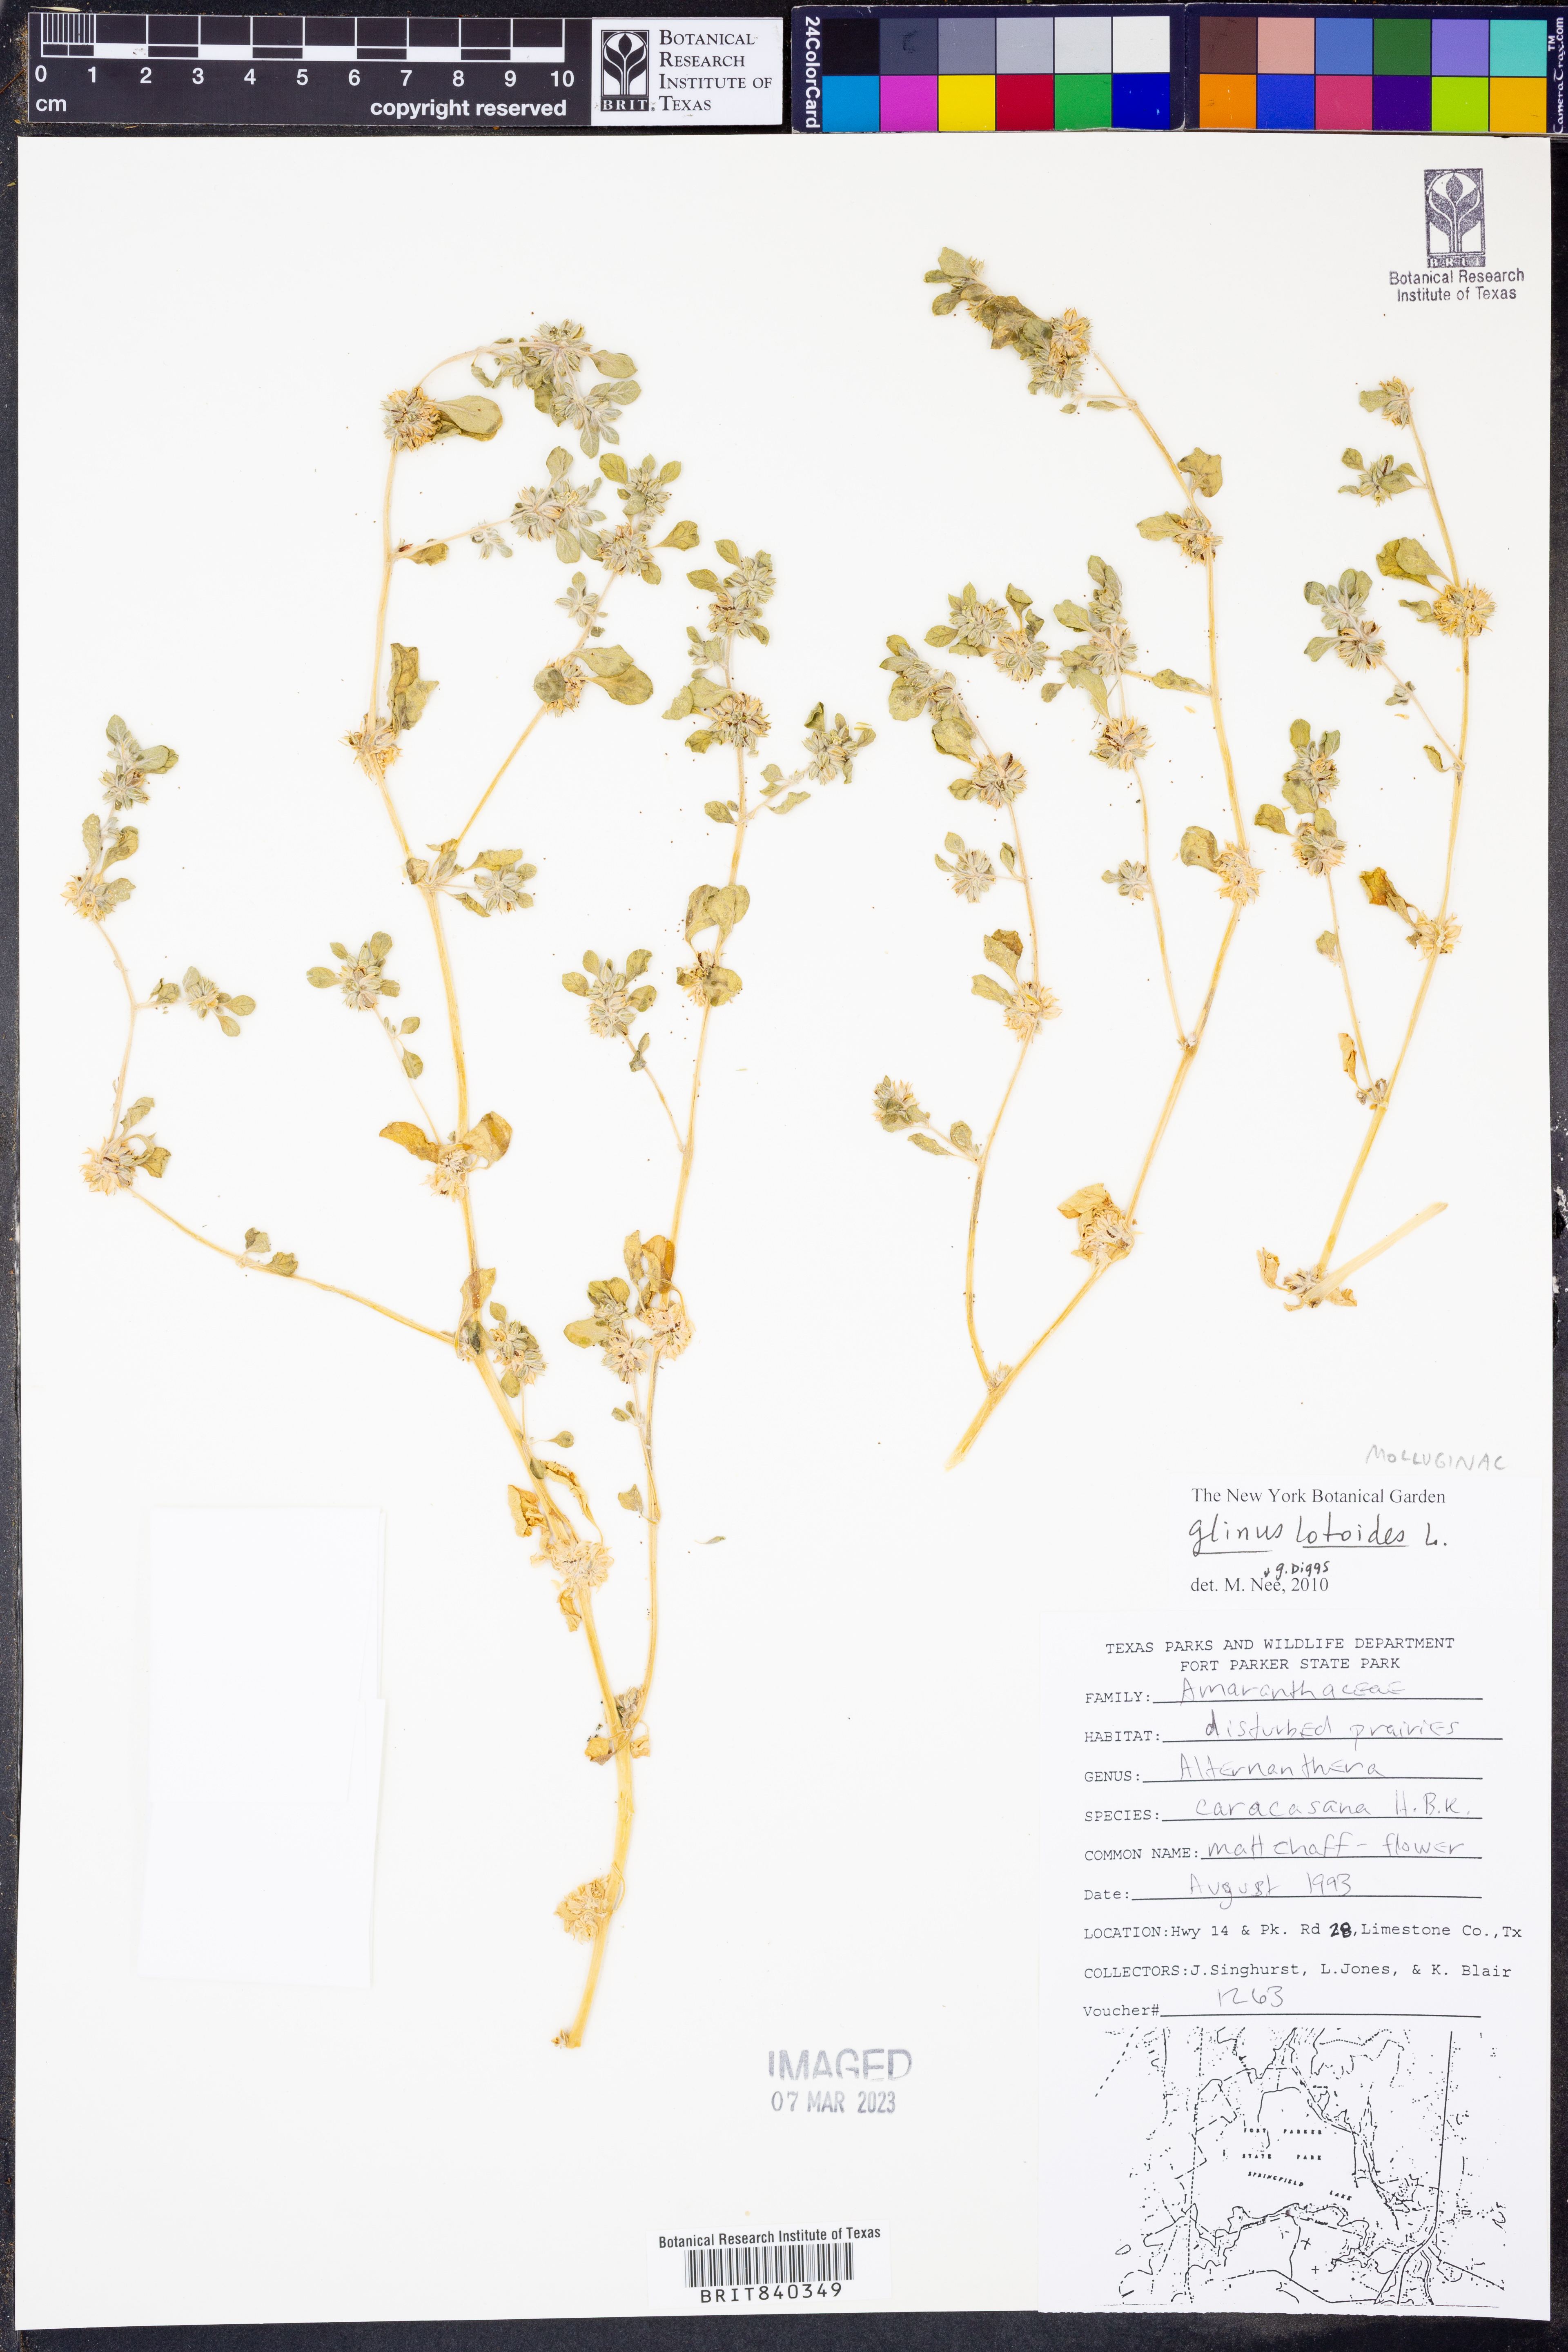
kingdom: Plantae
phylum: Tracheophyta
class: Magnoliopsida
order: Caryophyllales
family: Molluginaceae
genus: Glinus
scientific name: Glinus lotoides
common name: Lotus sweetjuice
